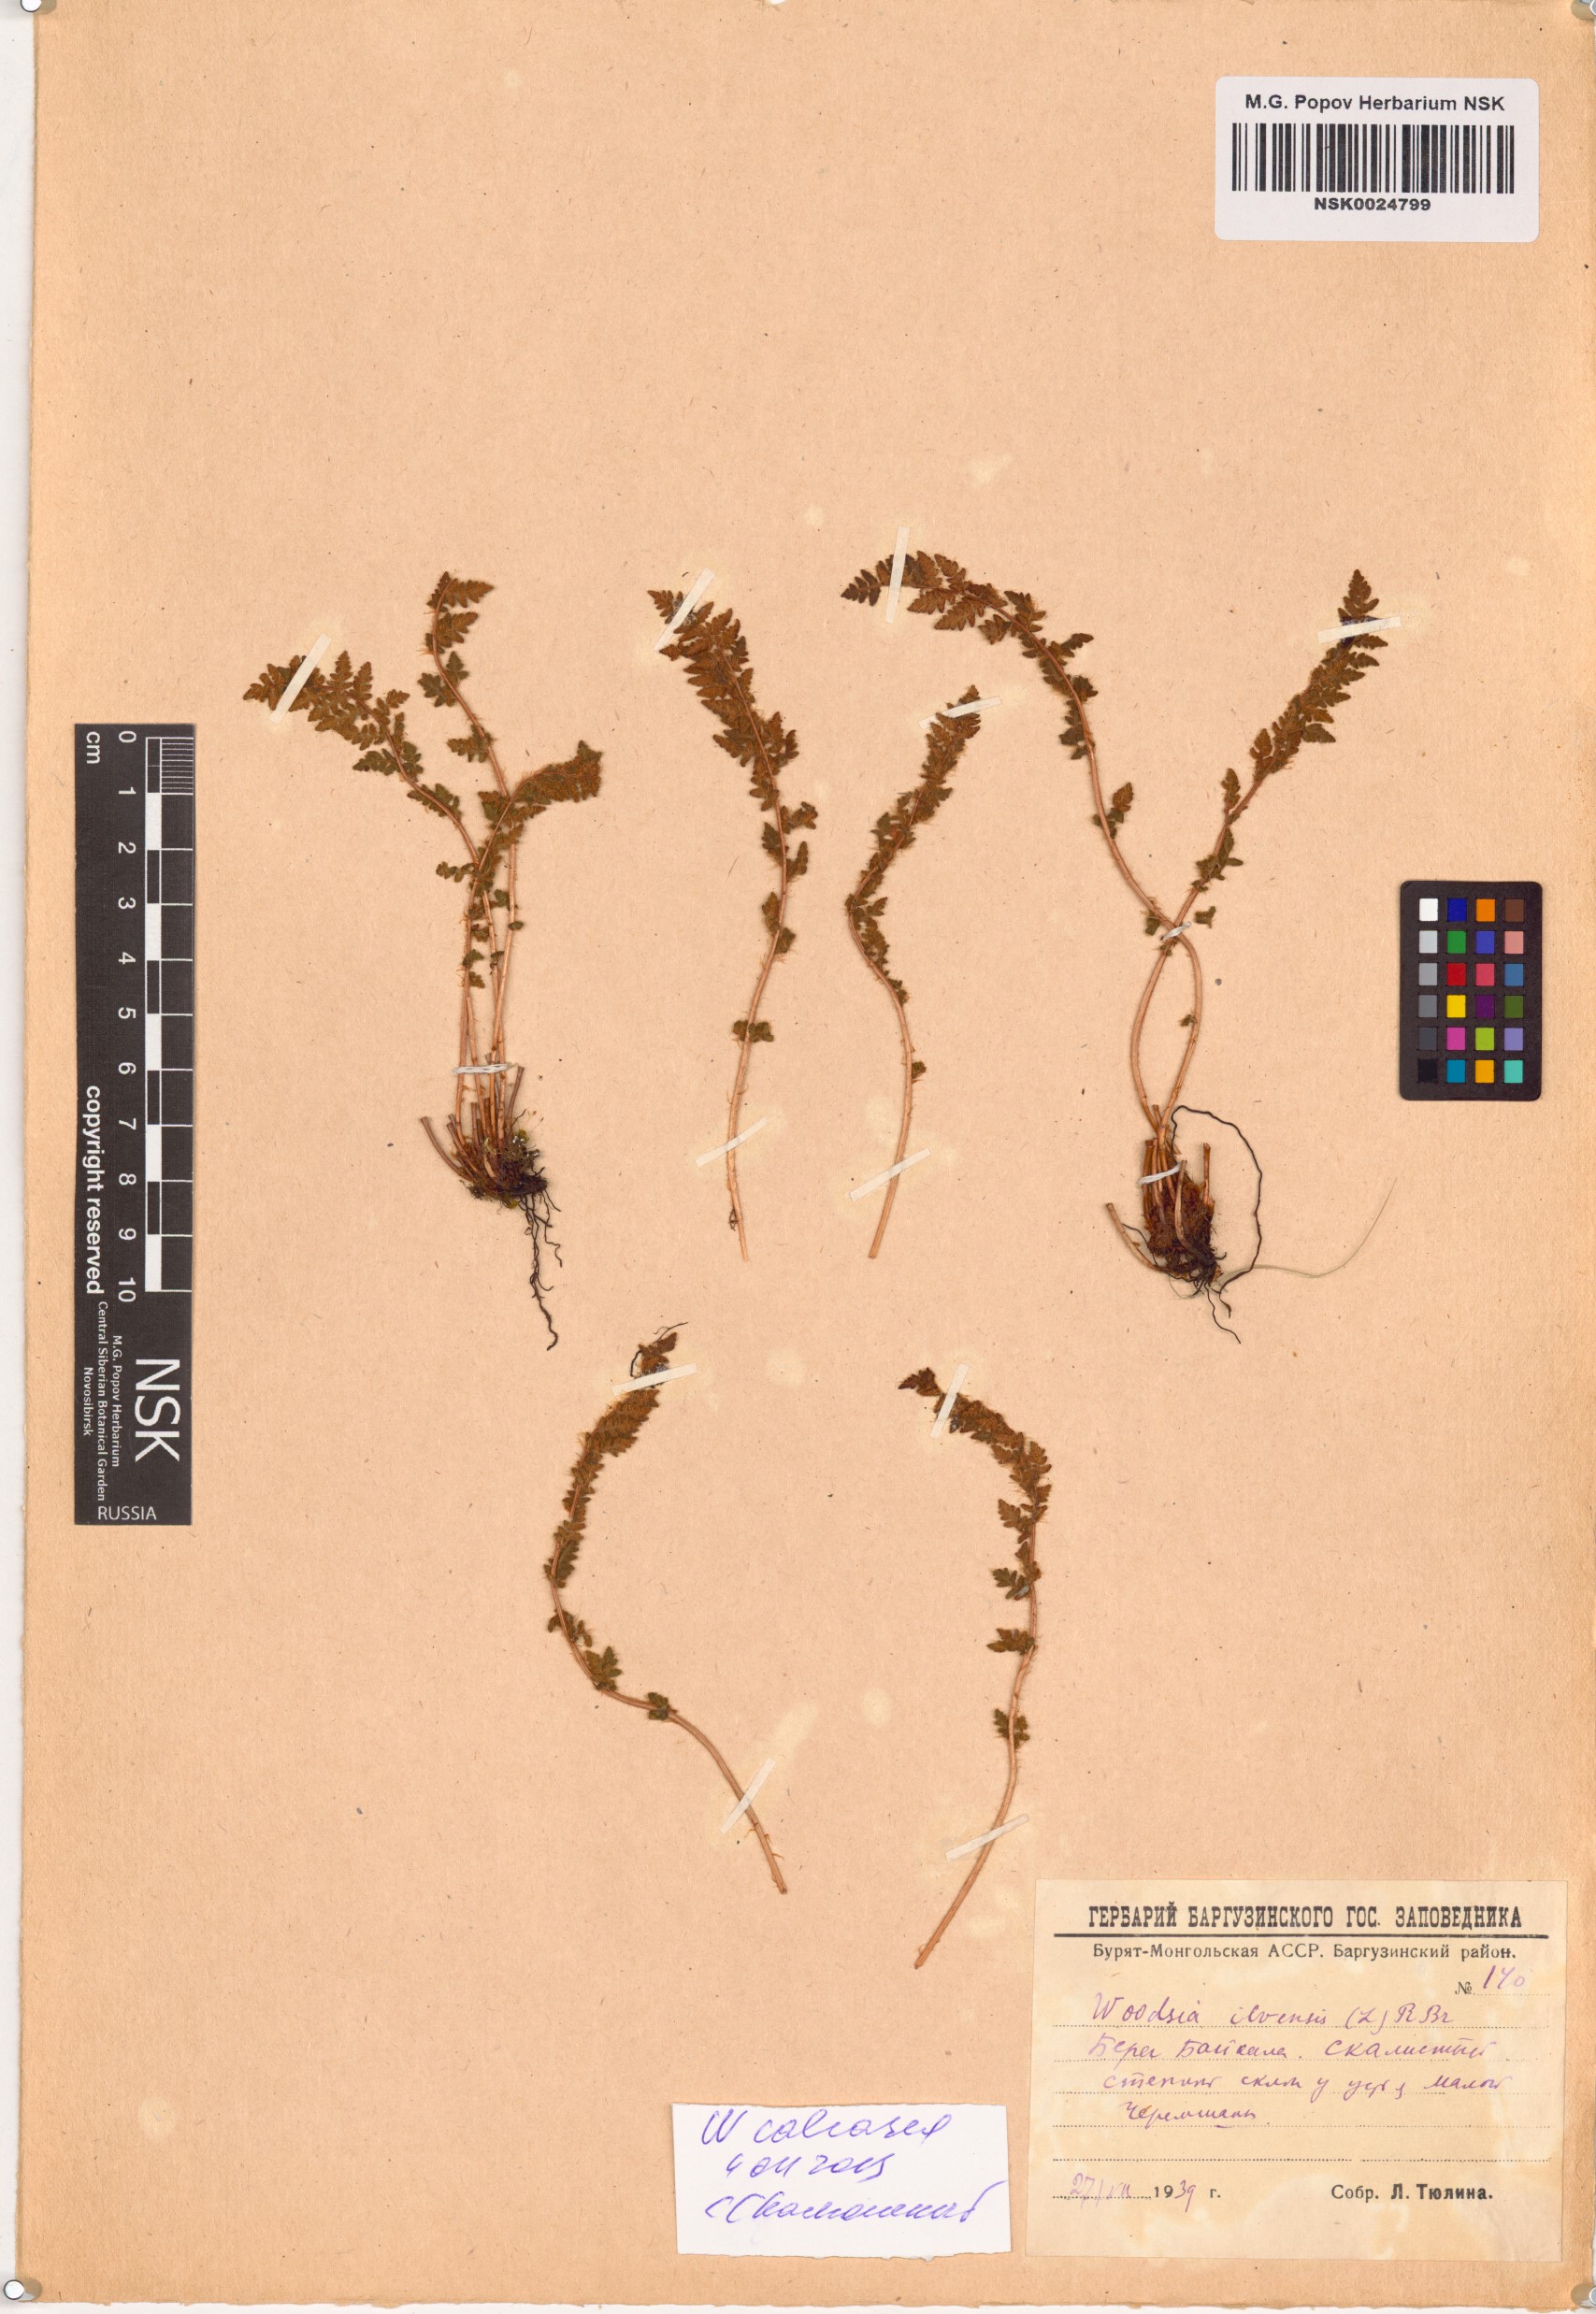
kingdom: Plantae
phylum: Tracheophyta
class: Polypodiopsida
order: Polypodiales
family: Woodsiaceae
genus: Woodsia
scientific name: Woodsia calcarea
